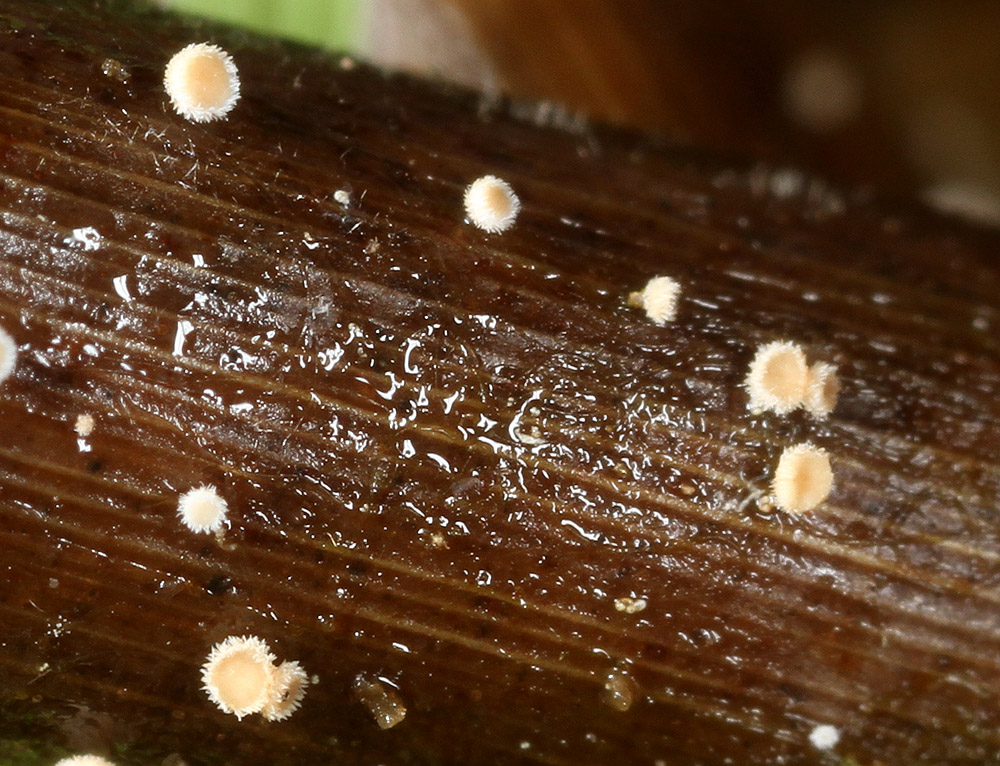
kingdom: Fungi
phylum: Ascomycota
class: Leotiomycetes
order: Helotiales
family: Lachnaceae
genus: Lachnum
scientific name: Lachnum apalum
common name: siv-frynseskive
